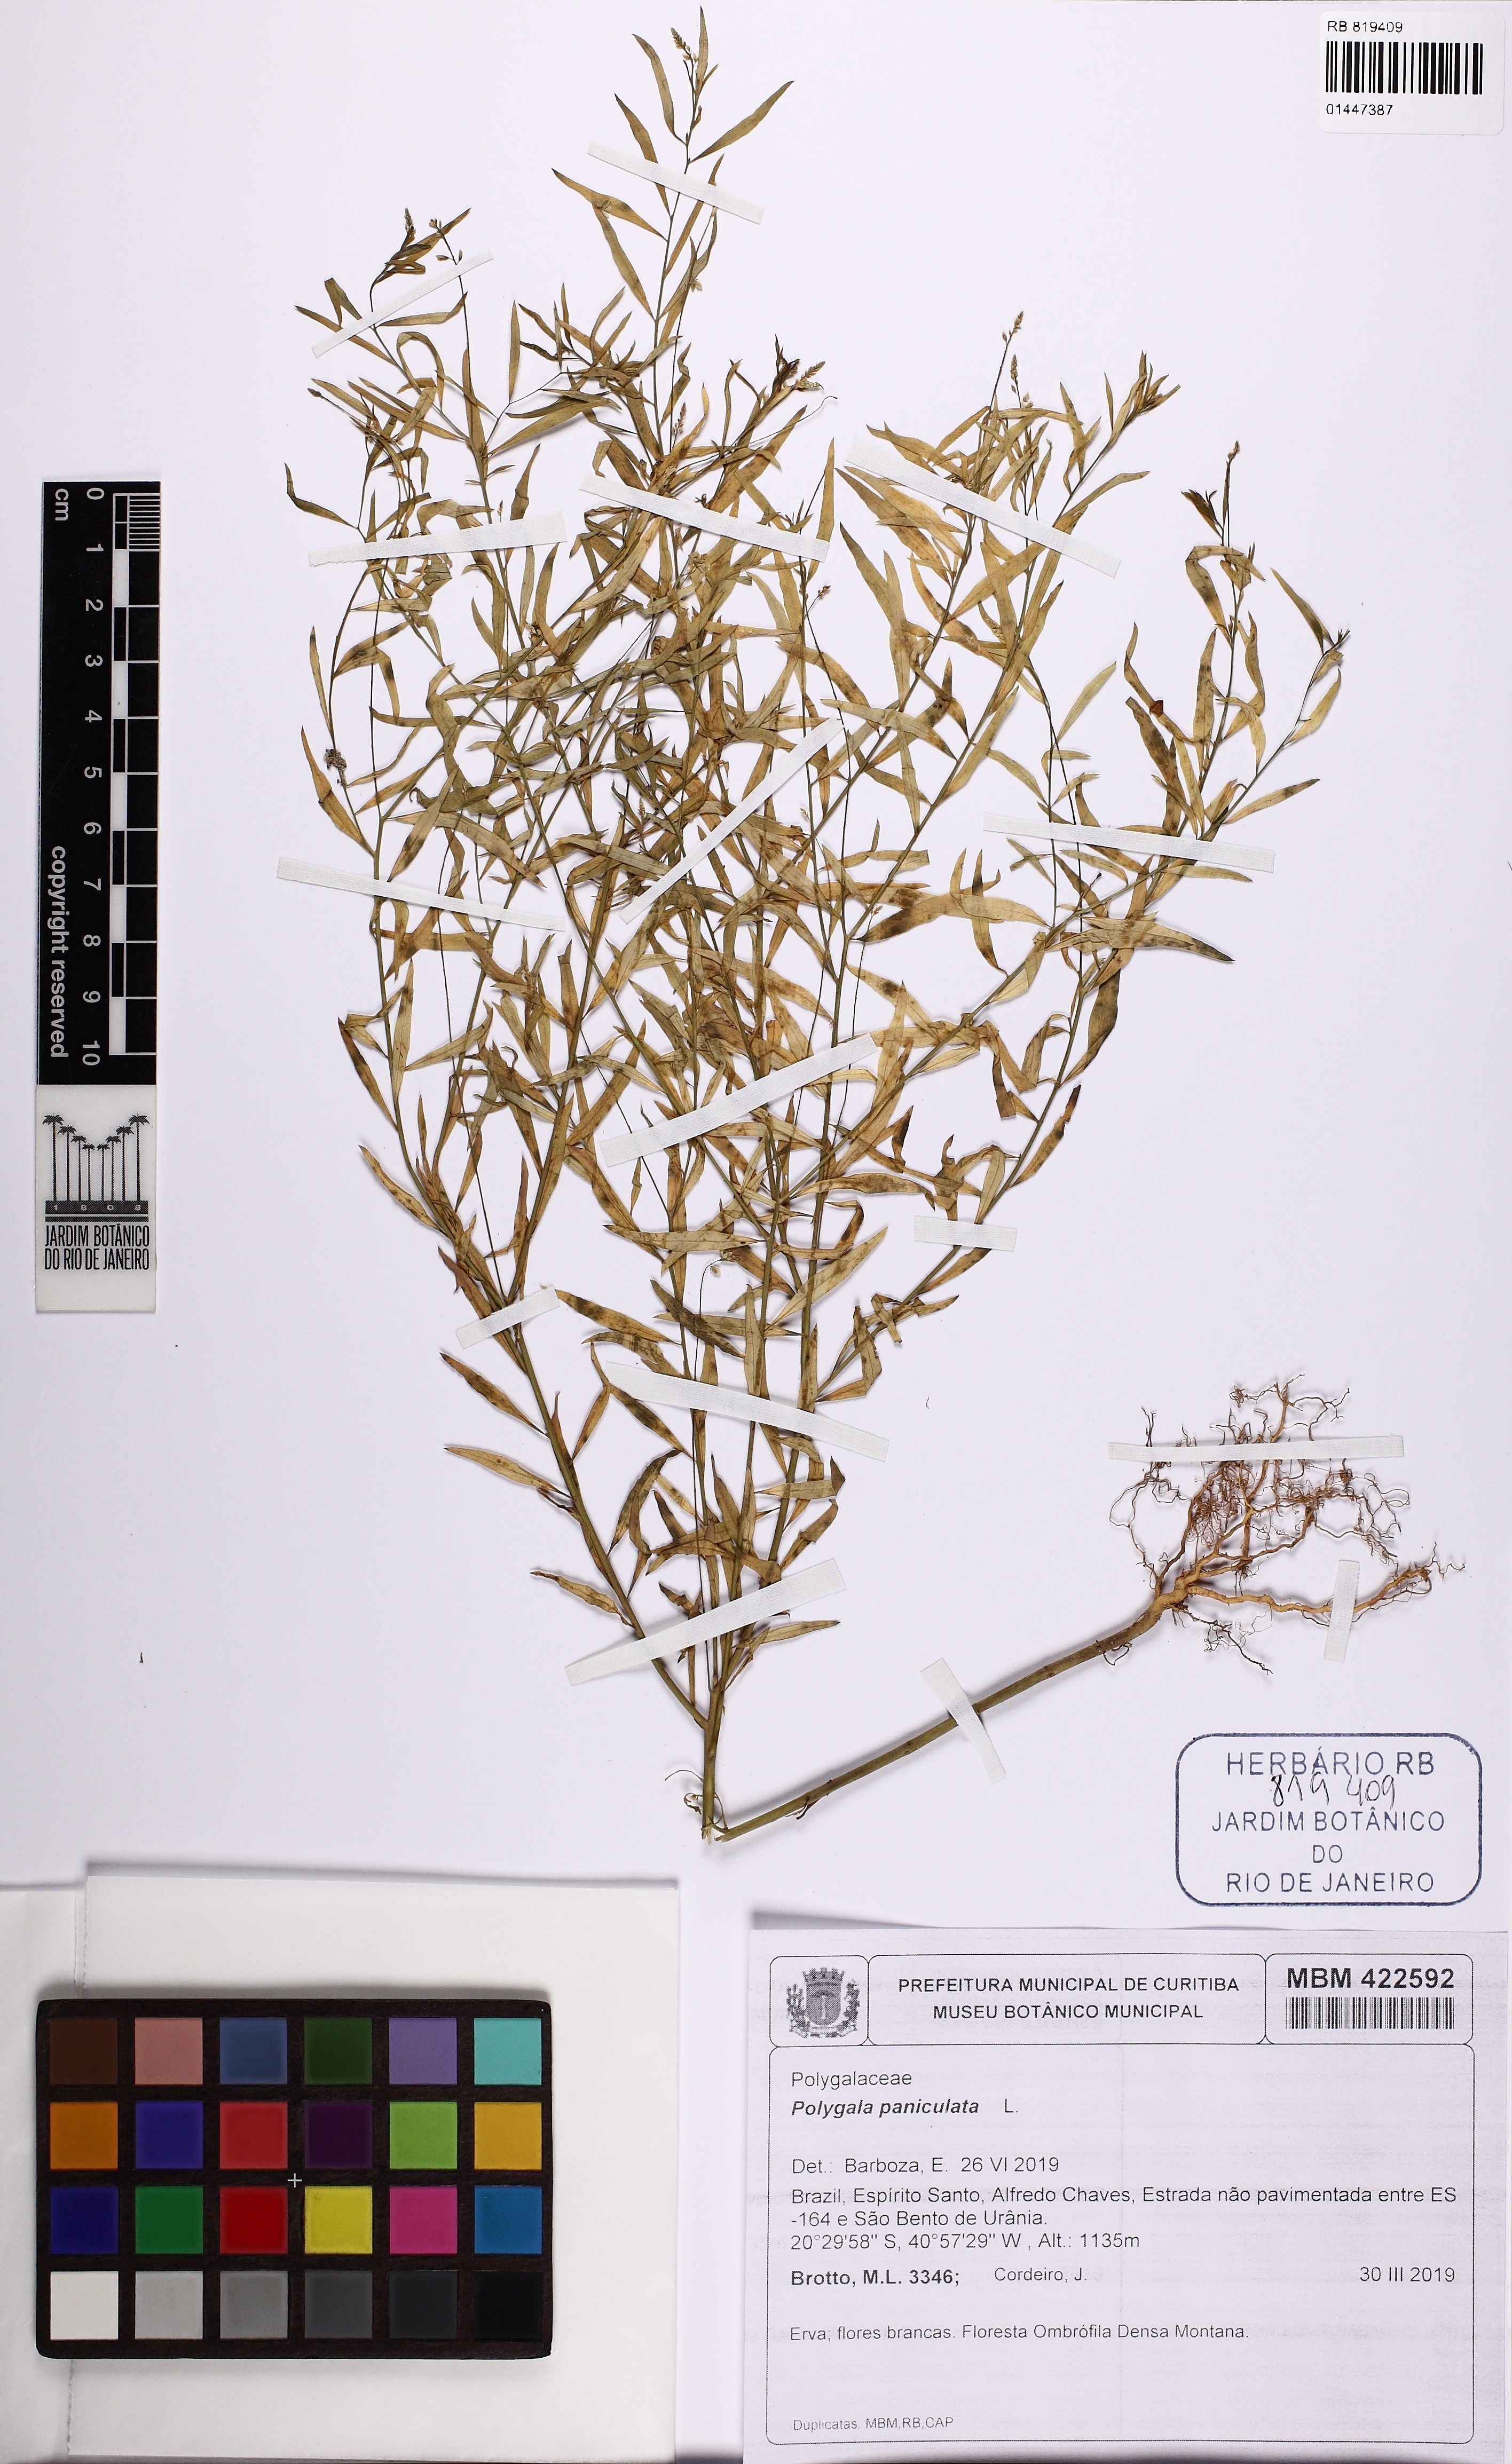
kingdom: Plantae
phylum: Tracheophyta
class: Magnoliopsida
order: Fabales
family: Polygalaceae
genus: Polygala
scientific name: Polygala paniculata
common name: Orosne
